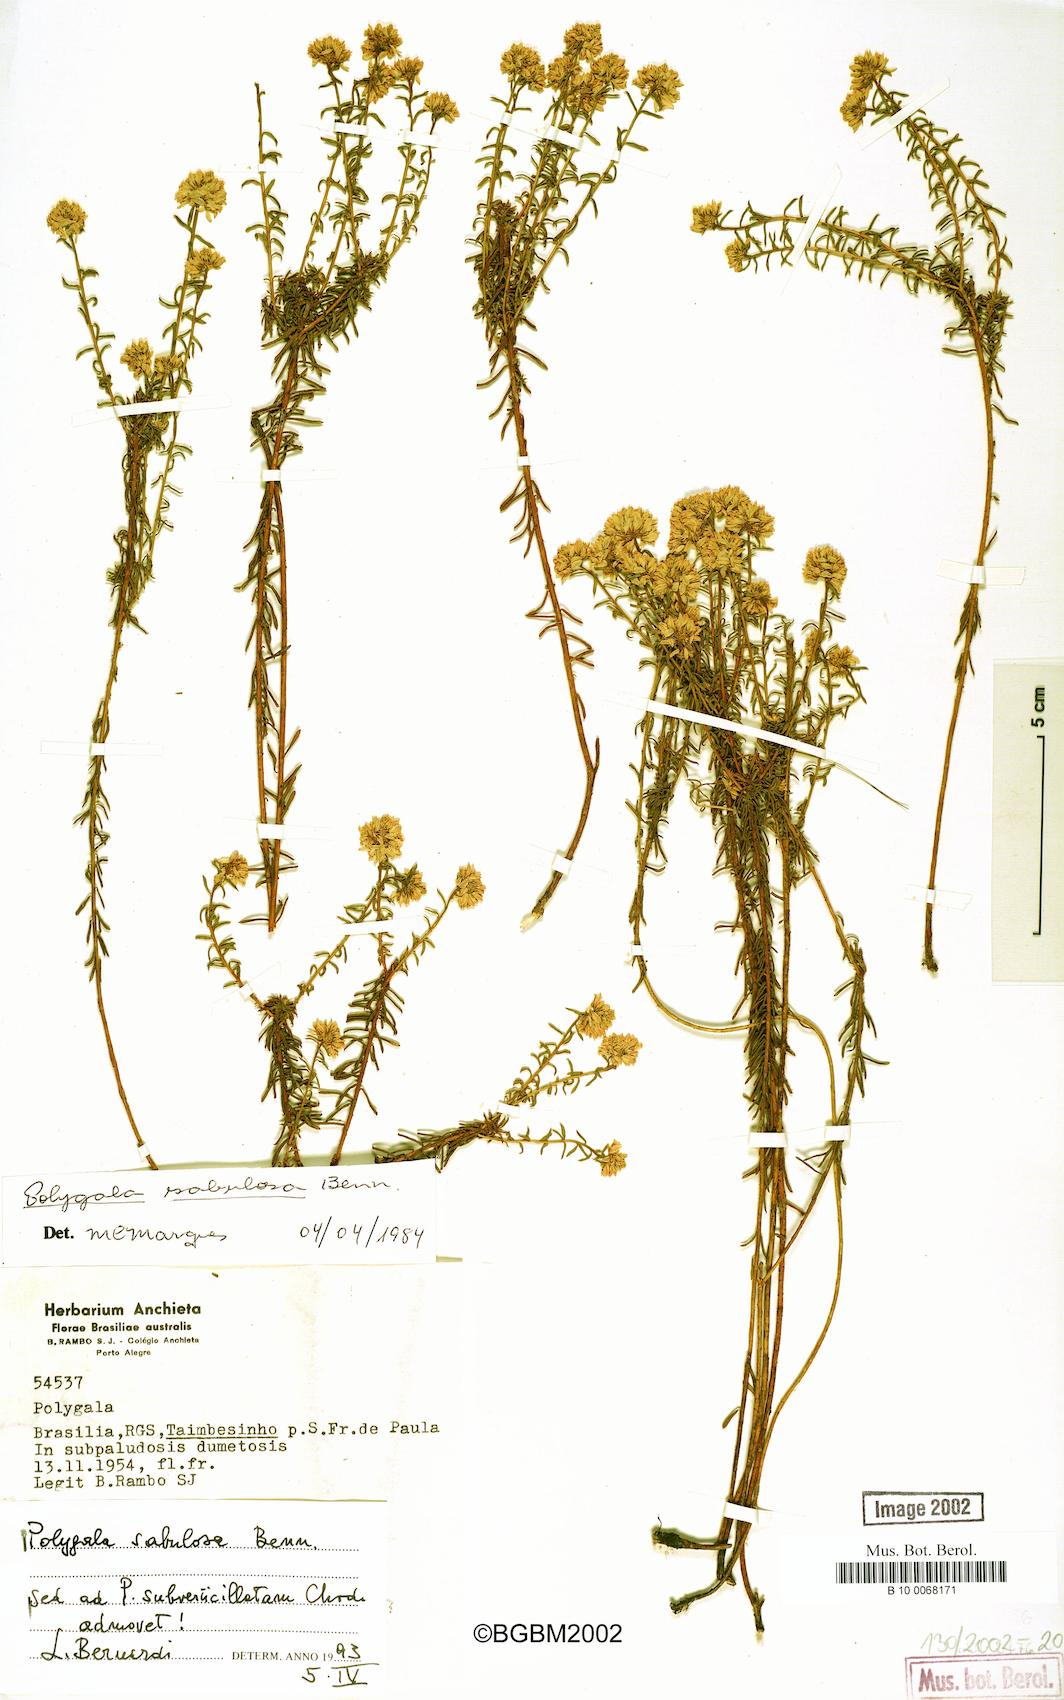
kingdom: Plantae
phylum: Tracheophyta
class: Magnoliopsida
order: Fabales
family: Polygalaceae
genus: Polygala
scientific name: Polygala sellowiana
